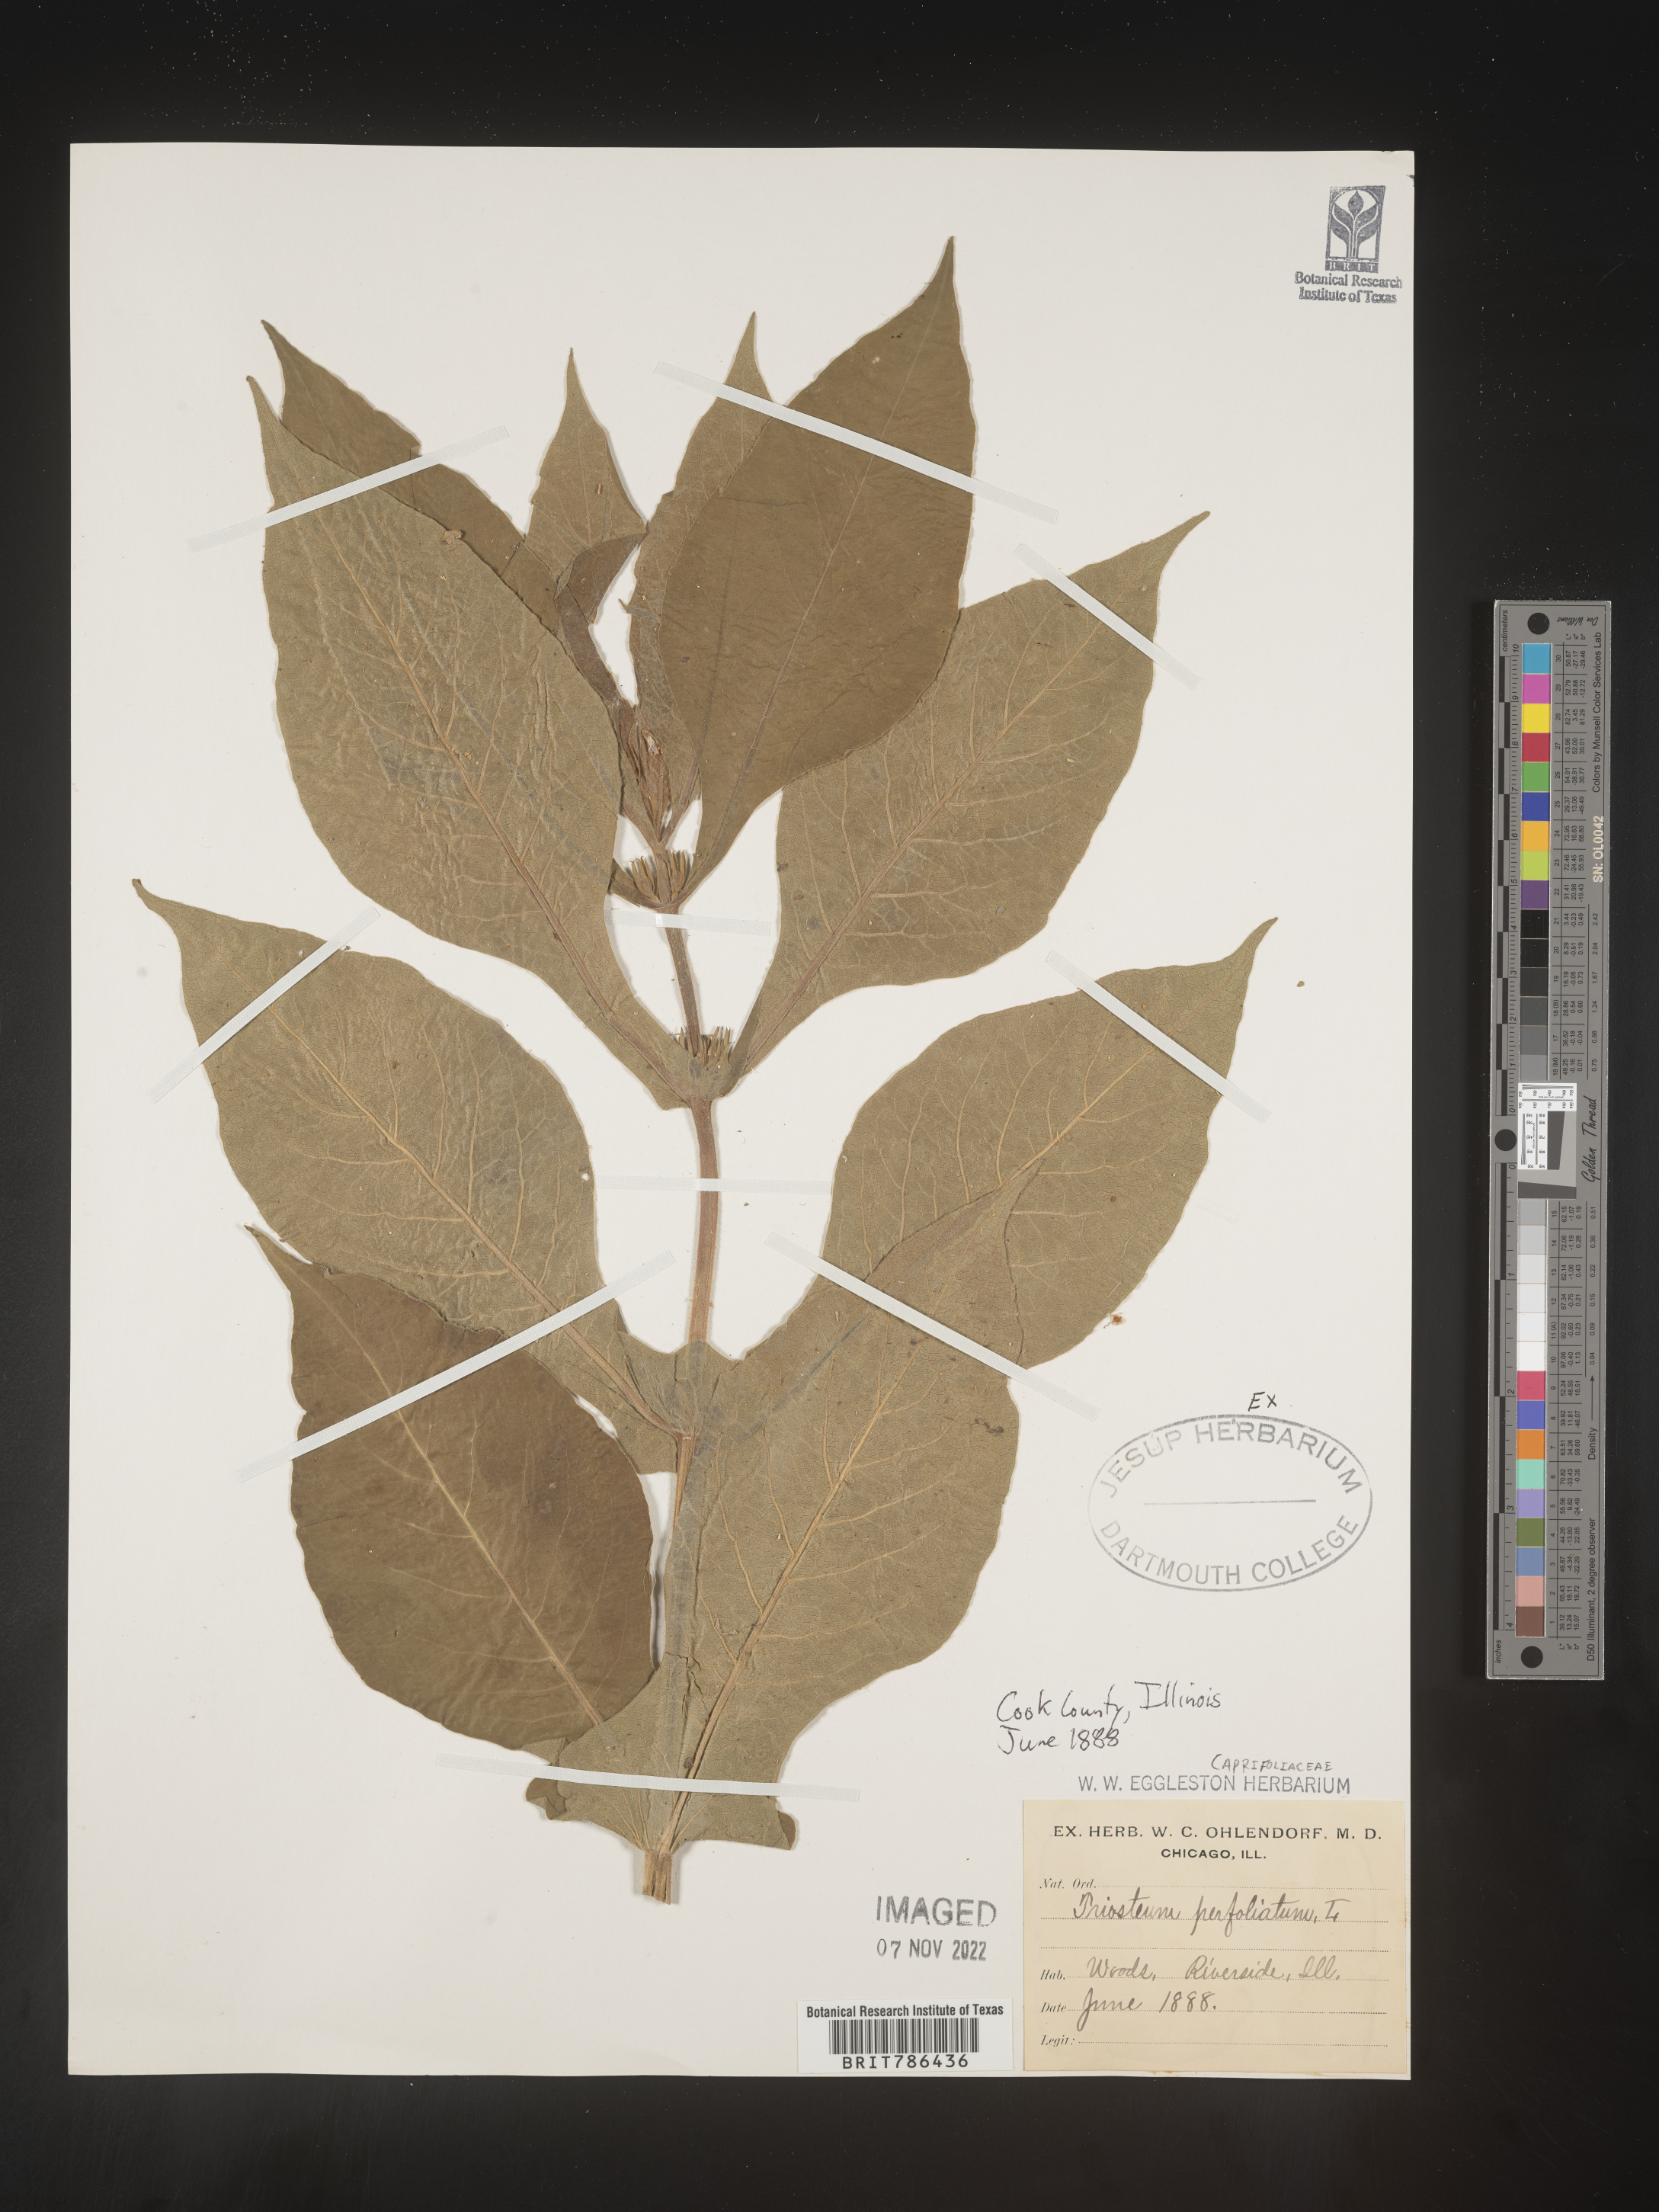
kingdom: Plantae
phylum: Tracheophyta
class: Magnoliopsida
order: Dipsacales
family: Caprifoliaceae
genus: Triosteum
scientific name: Triosteum perfoliatum
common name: Common horse-gentian
